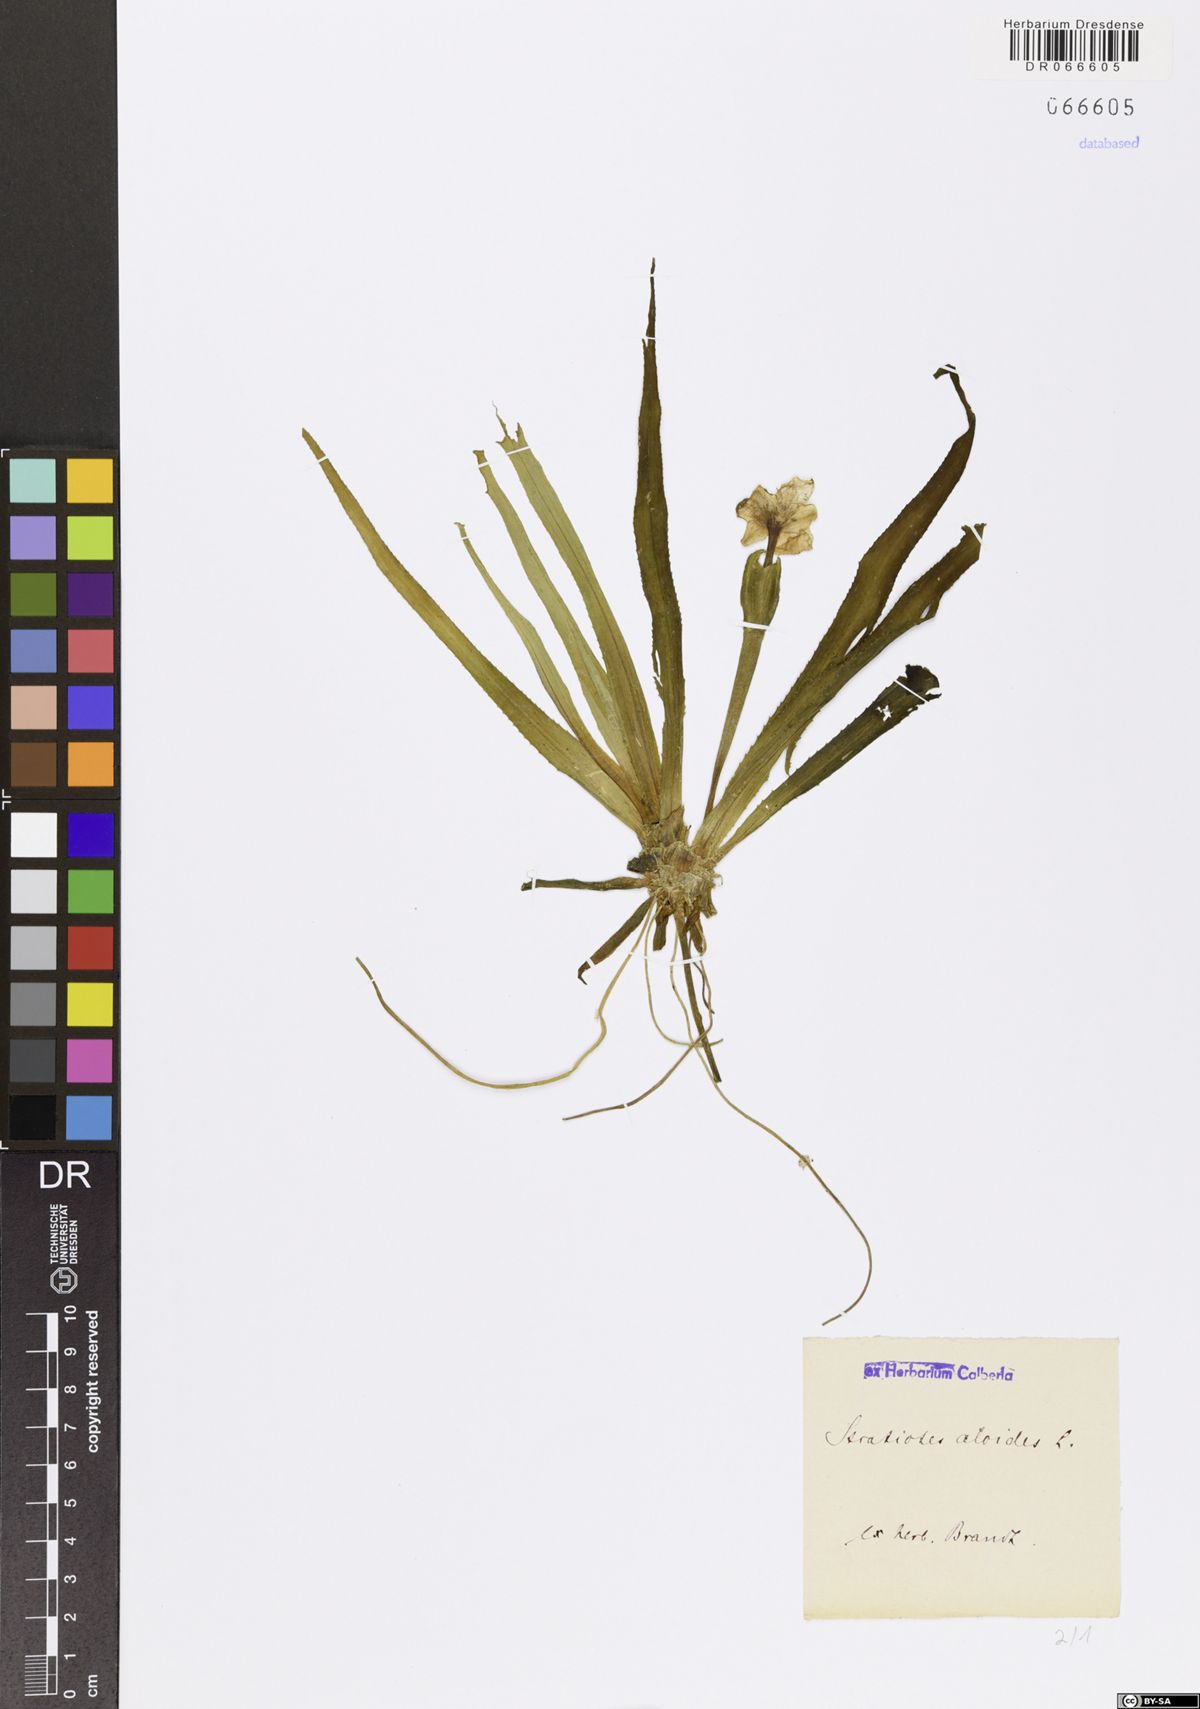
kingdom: Plantae
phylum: Tracheophyta
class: Liliopsida
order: Alismatales
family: Hydrocharitaceae
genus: Stratiotes
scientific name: Stratiotes aloides
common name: Water-soldier
